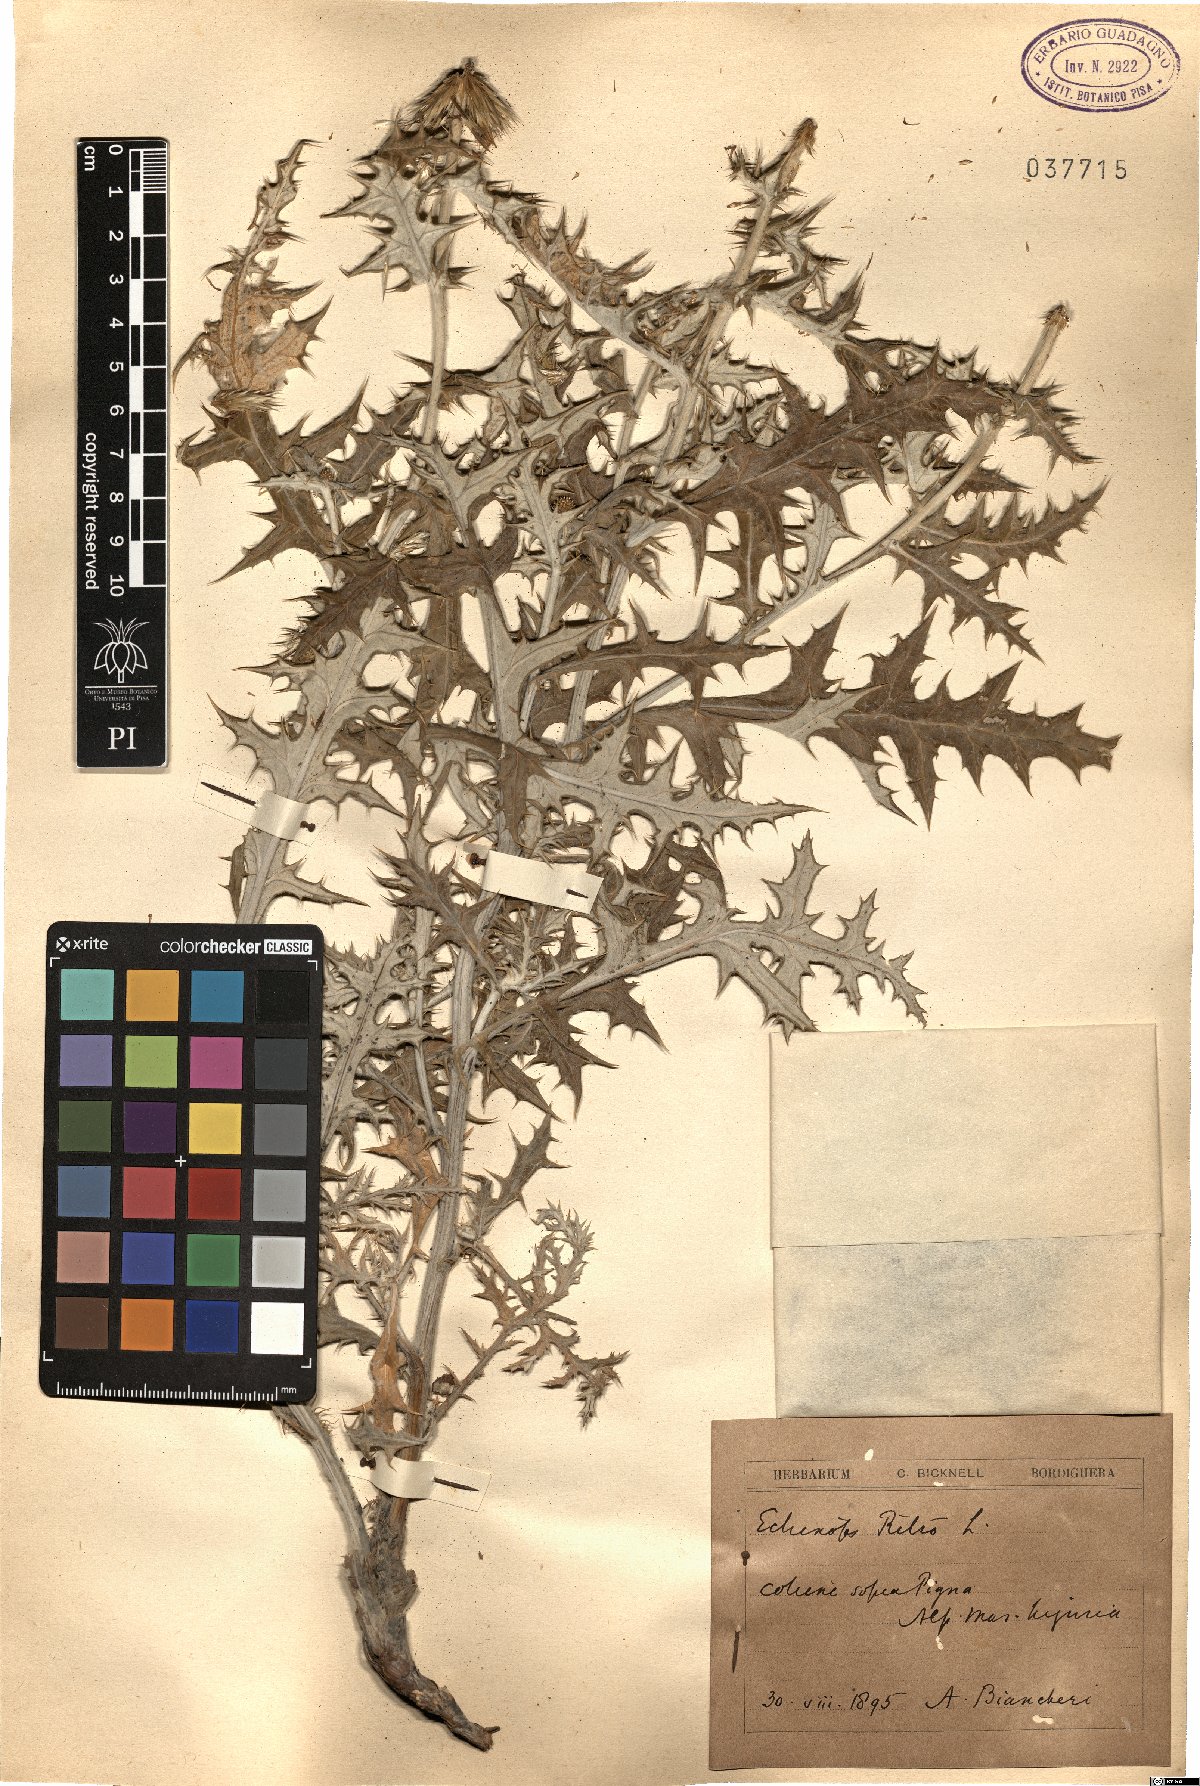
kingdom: Plantae
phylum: Tracheophyta
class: Magnoliopsida
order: Asterales
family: Asteraceae
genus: Echinops
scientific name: Echinops ritro
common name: Globe thistle
